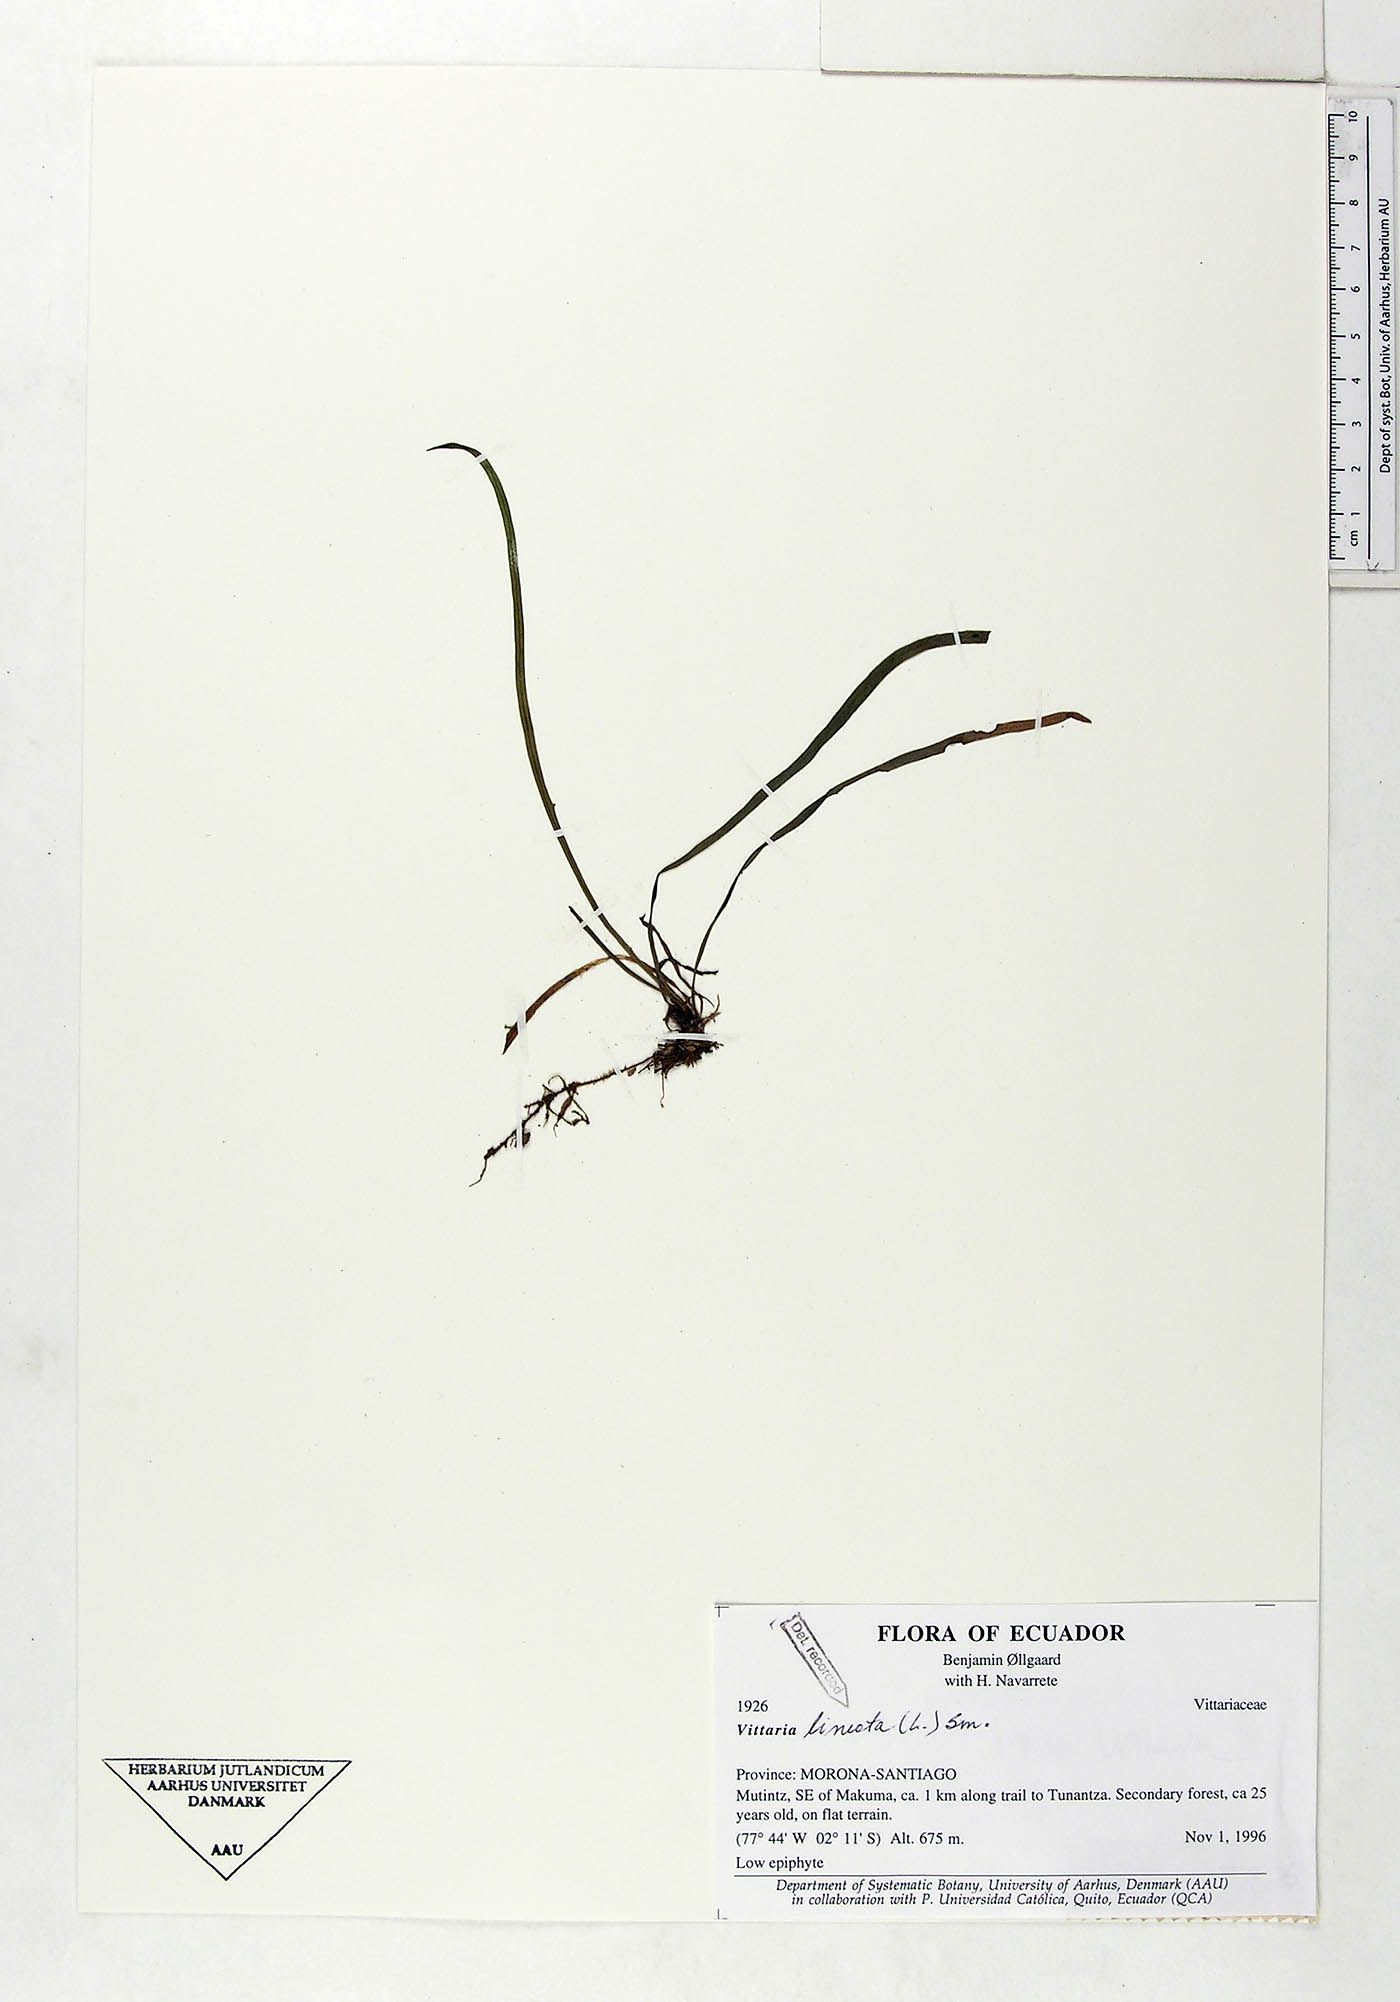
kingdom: Plantae
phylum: Tracheophyta
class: Polypodiopsida
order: Polypodiales
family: Pteridaceae
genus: Vittaria
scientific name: Vittaria lineata
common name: Shoestring fern
